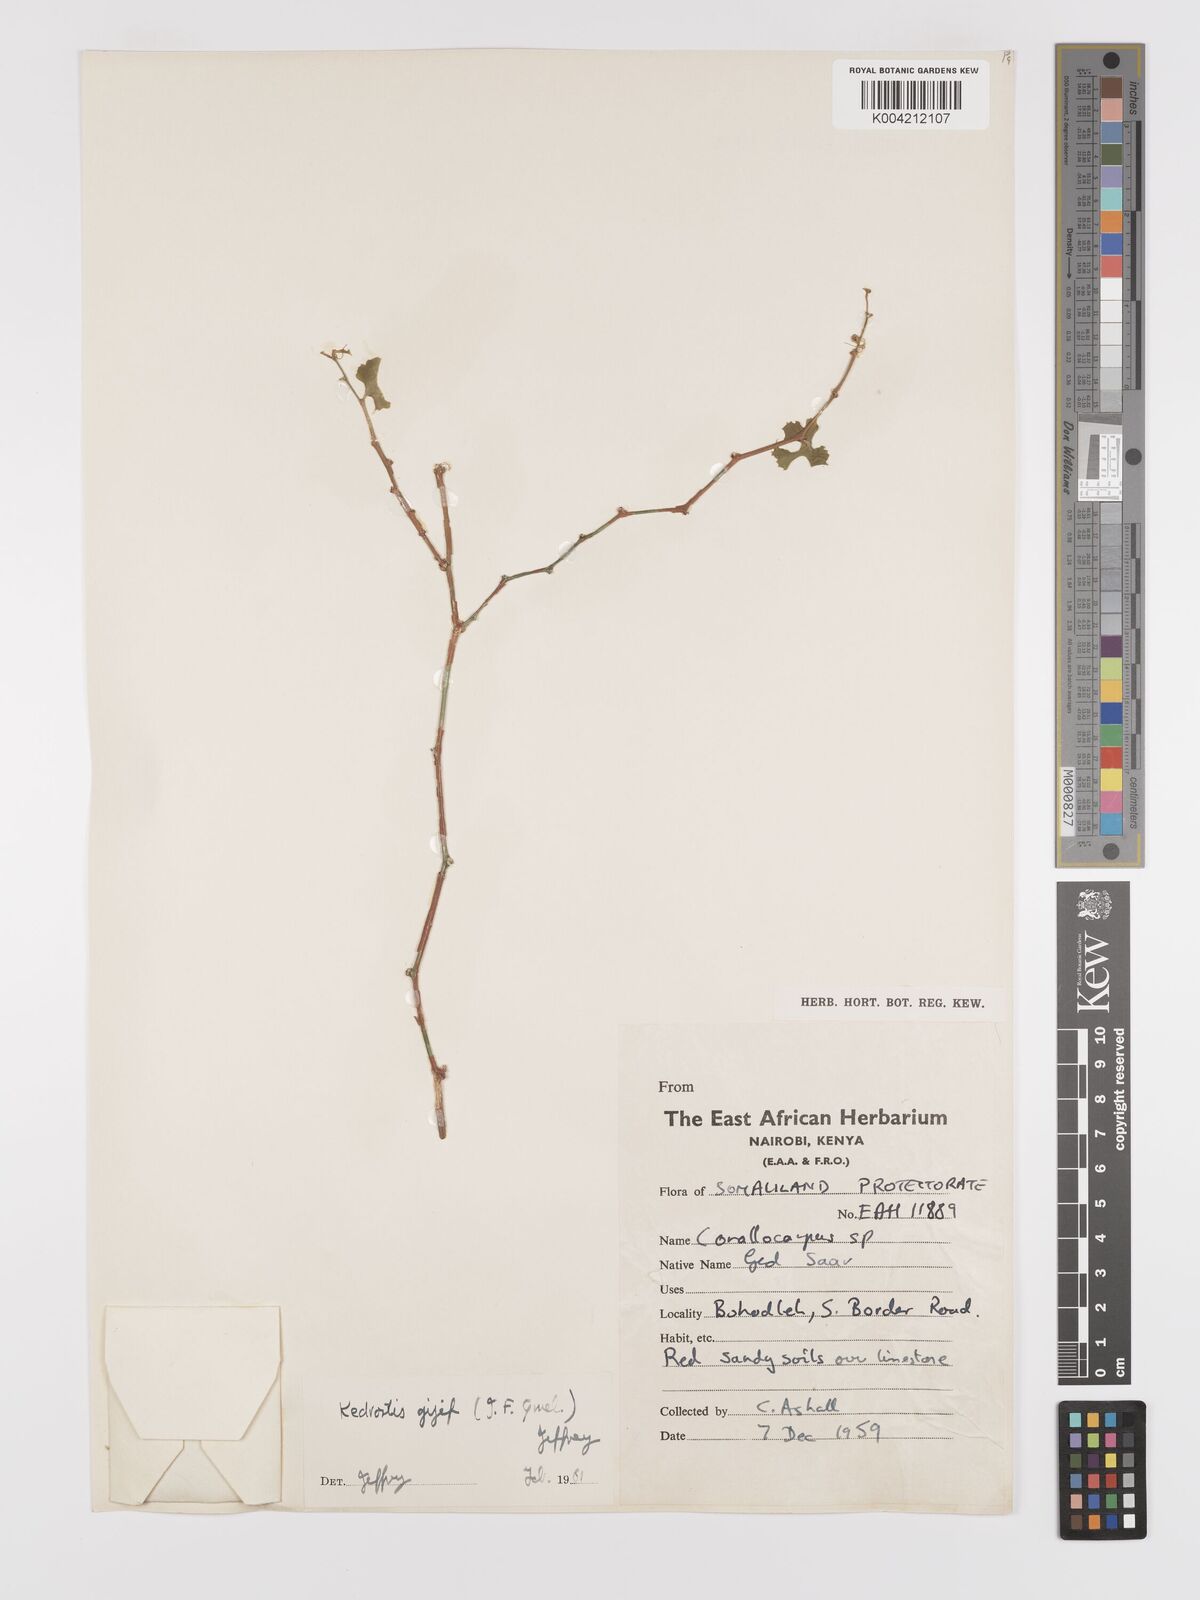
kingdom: Plantae
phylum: Tracheophyta
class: Magnoliopsida
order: Cucurbitales
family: Cucurbitaceae
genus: Kedrostis
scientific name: Kedrostis gijef
